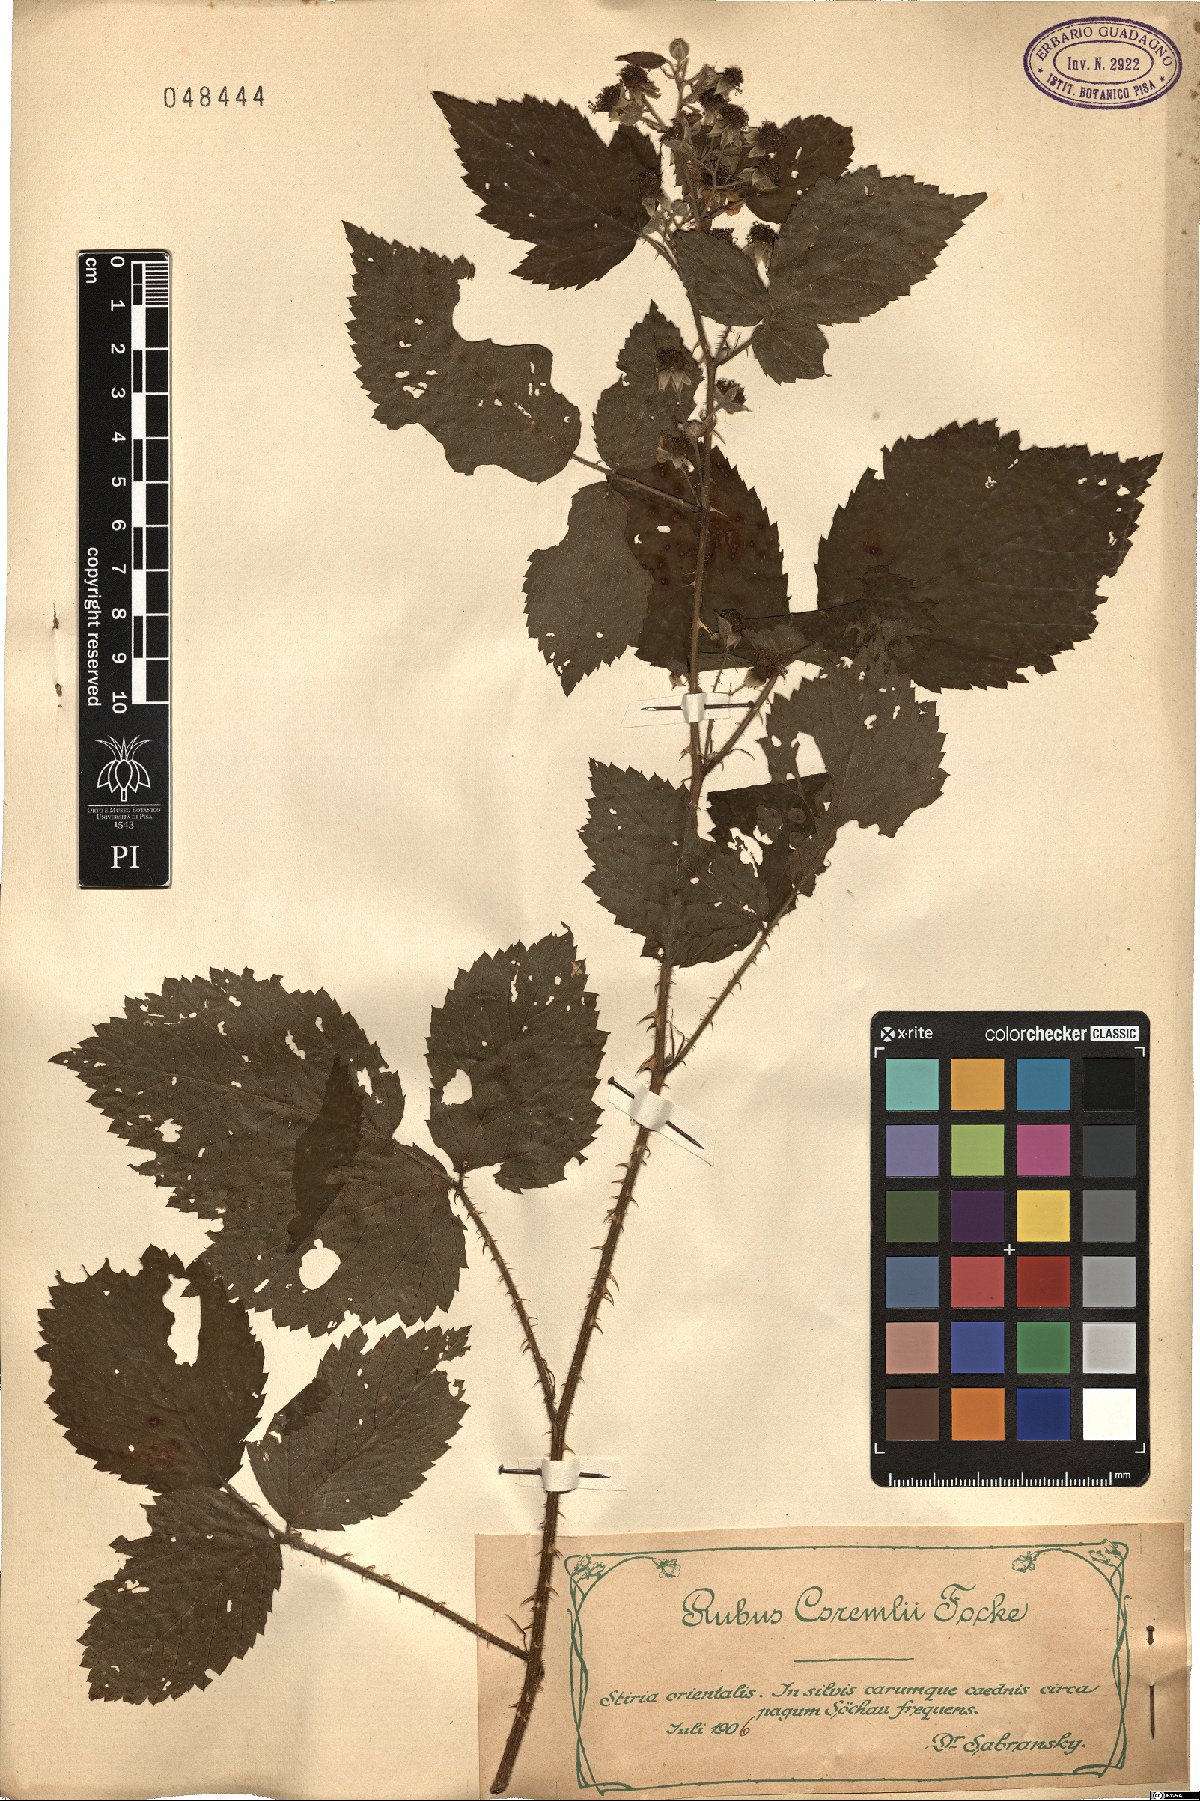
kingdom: Plantae
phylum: Tracheophyta
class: Magnoliopsida
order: Rosales
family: Rosaceae
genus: Rubus
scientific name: Rubus gremlii
